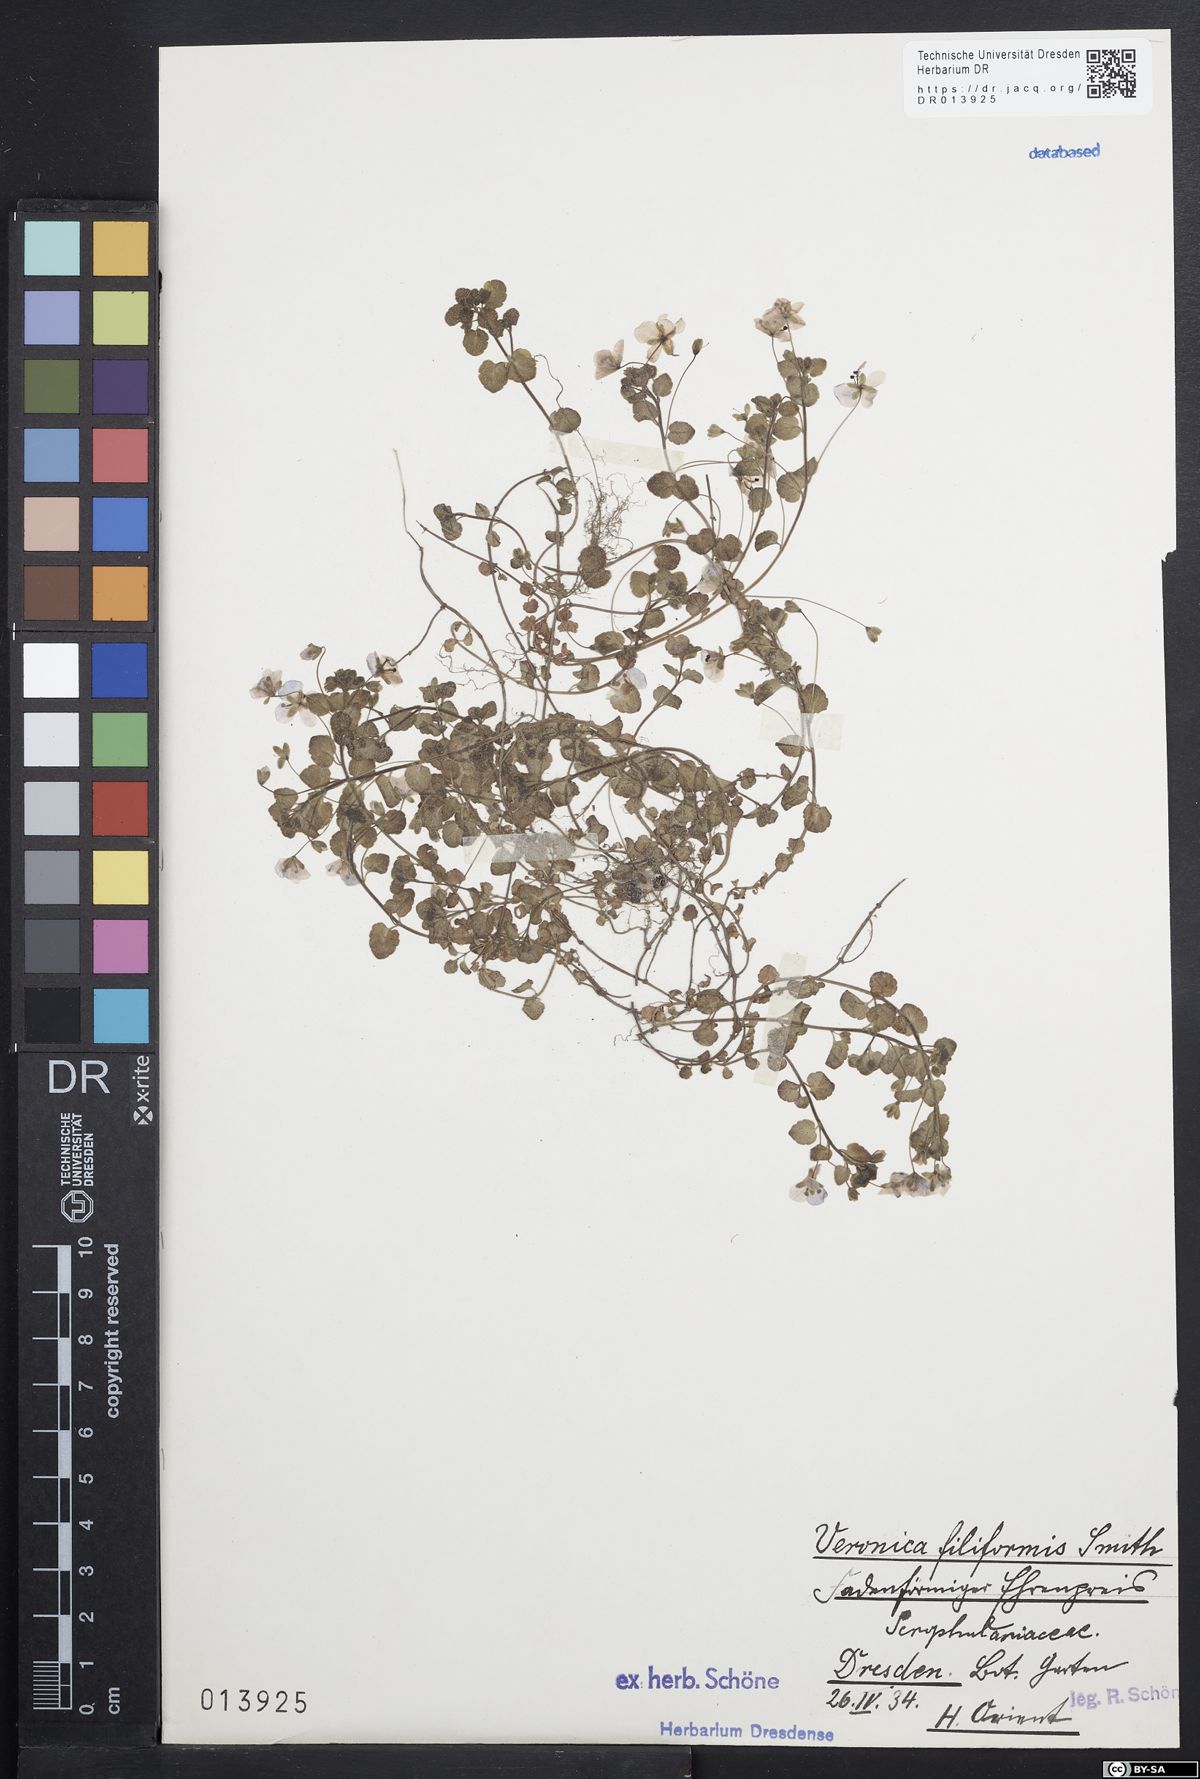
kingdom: Plantae
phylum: Tracheophyta
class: Magnoliopsida
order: Lamiales
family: Plantaginaceae
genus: Veronica
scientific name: Veronica filiformis
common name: Slender speedwell
